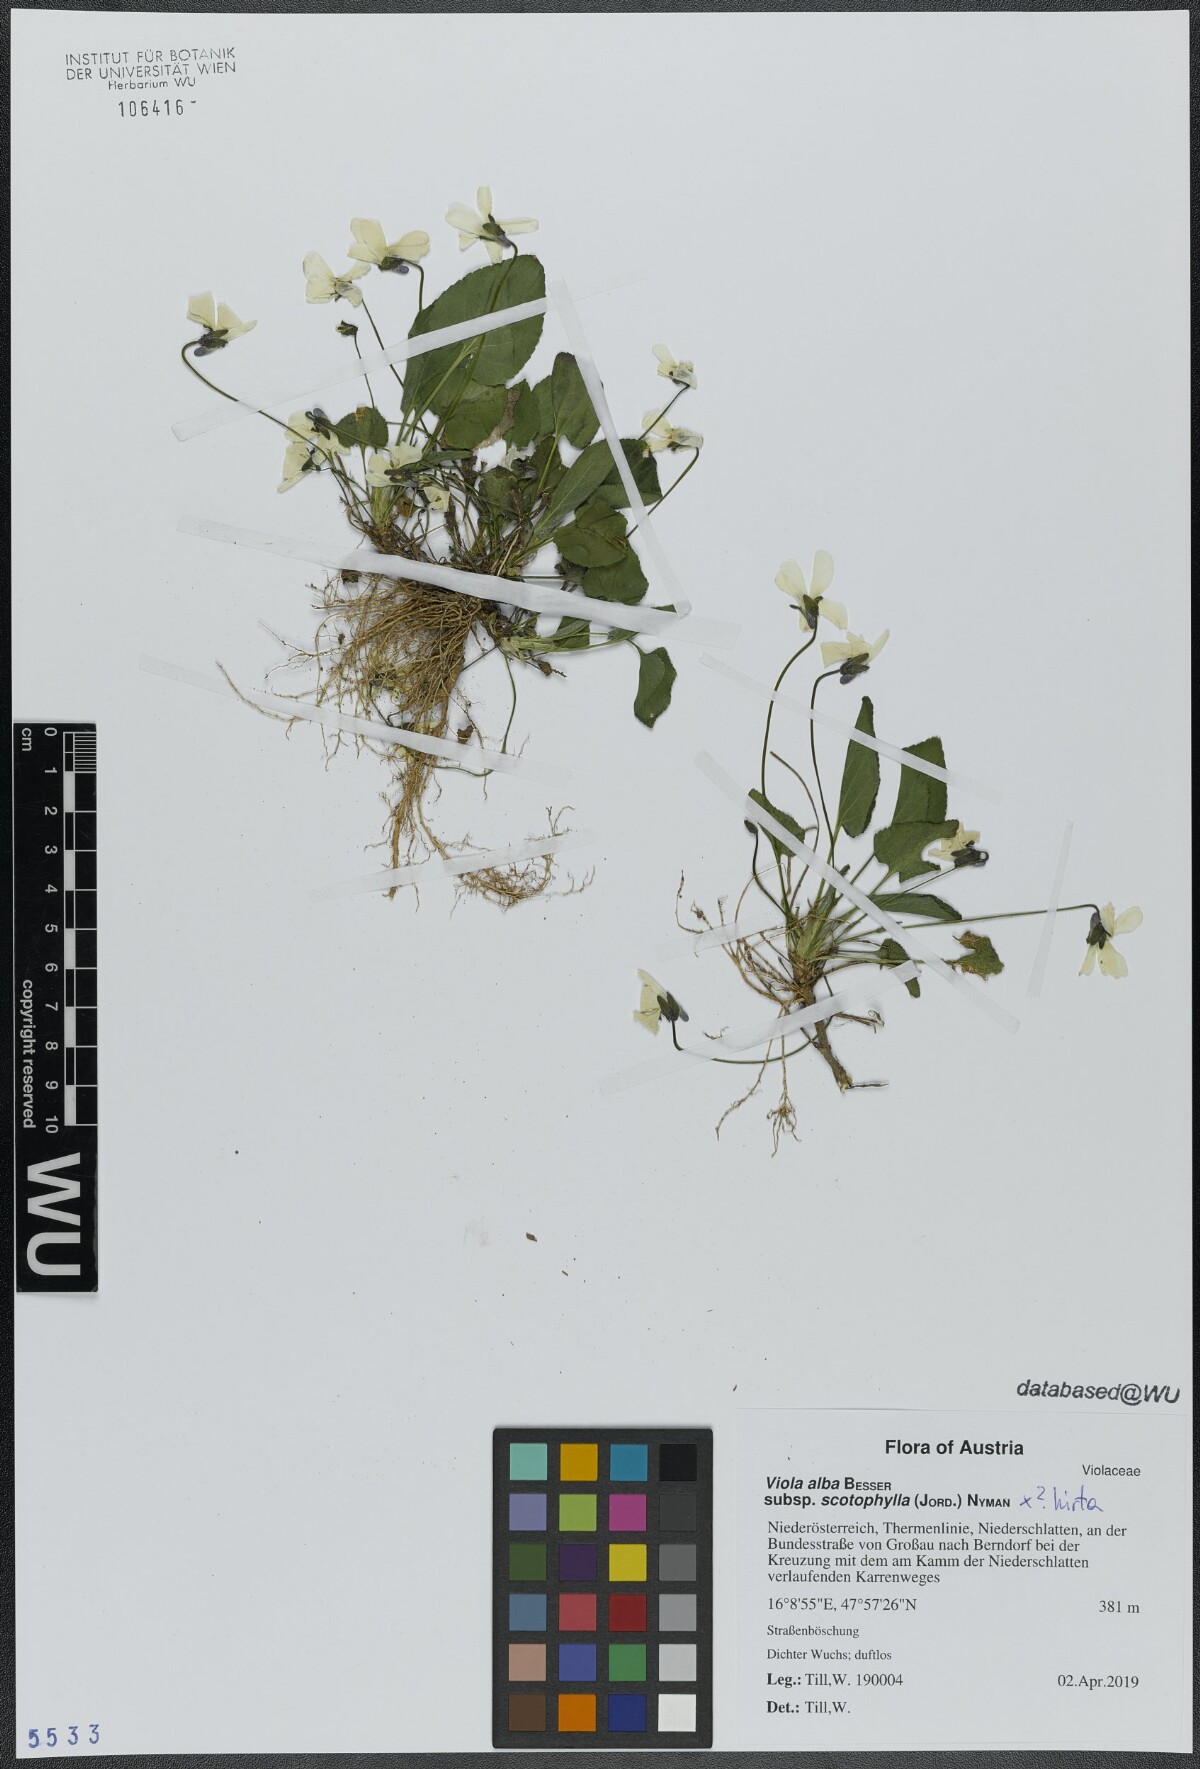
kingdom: Plantae
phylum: Tracheophyta
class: Magnoliopsida
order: Malpighiales
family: Violaceae
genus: Viola
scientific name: Viola alba
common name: White violet
